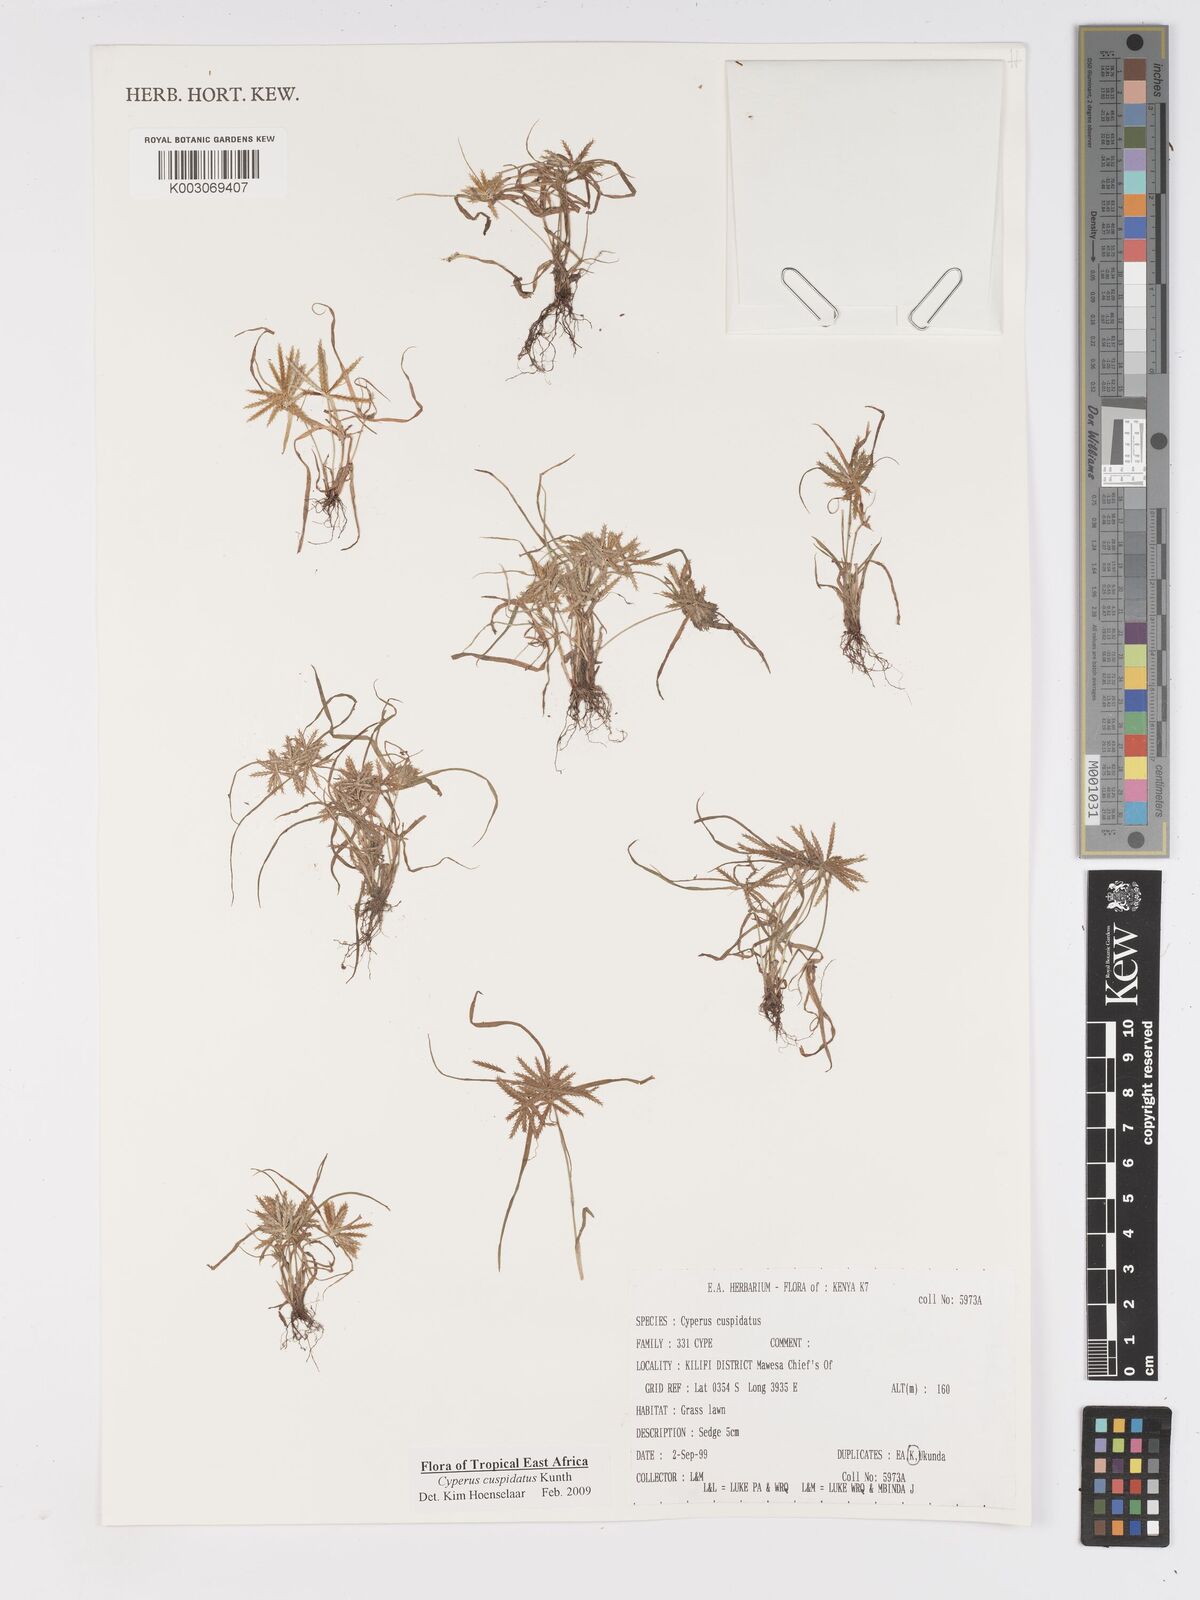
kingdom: Plantae
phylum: Tracheophyta
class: Liliopsida
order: Poales
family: Cyperaceae
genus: Cyperus
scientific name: Cyperus cuspidatus
